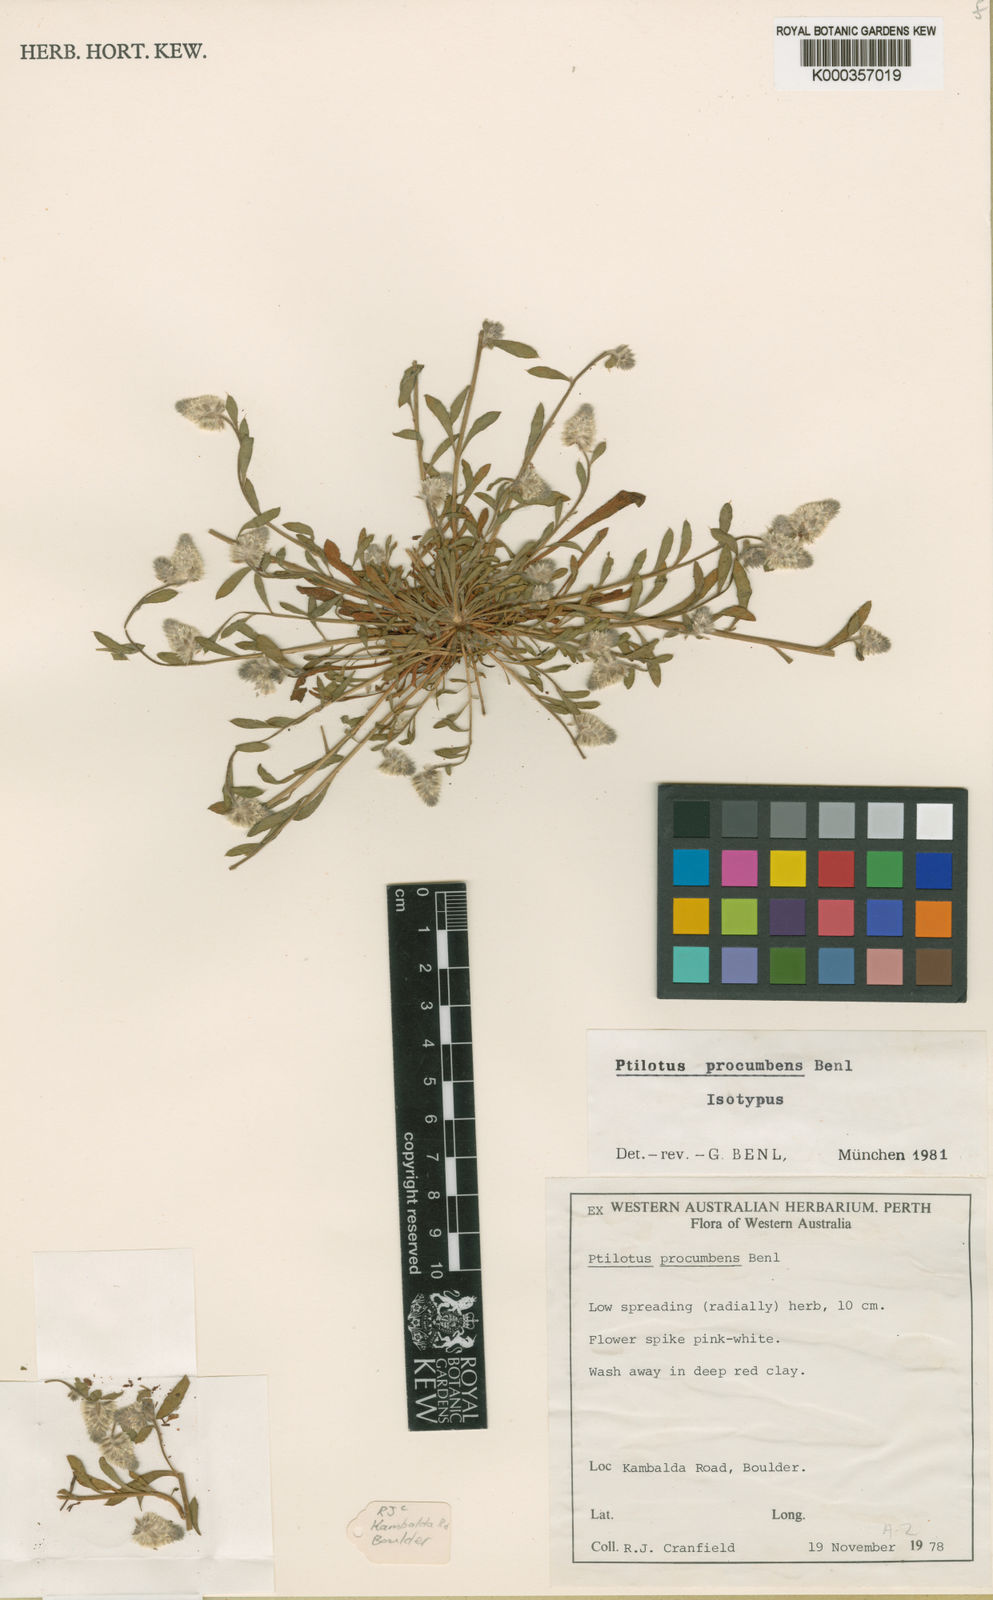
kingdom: Plantae
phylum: Tracheophyta
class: Magnoliopsida
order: Caryophyllales
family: Amaranthaceae
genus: Ptilotus
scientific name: Ptilotus procumbens
